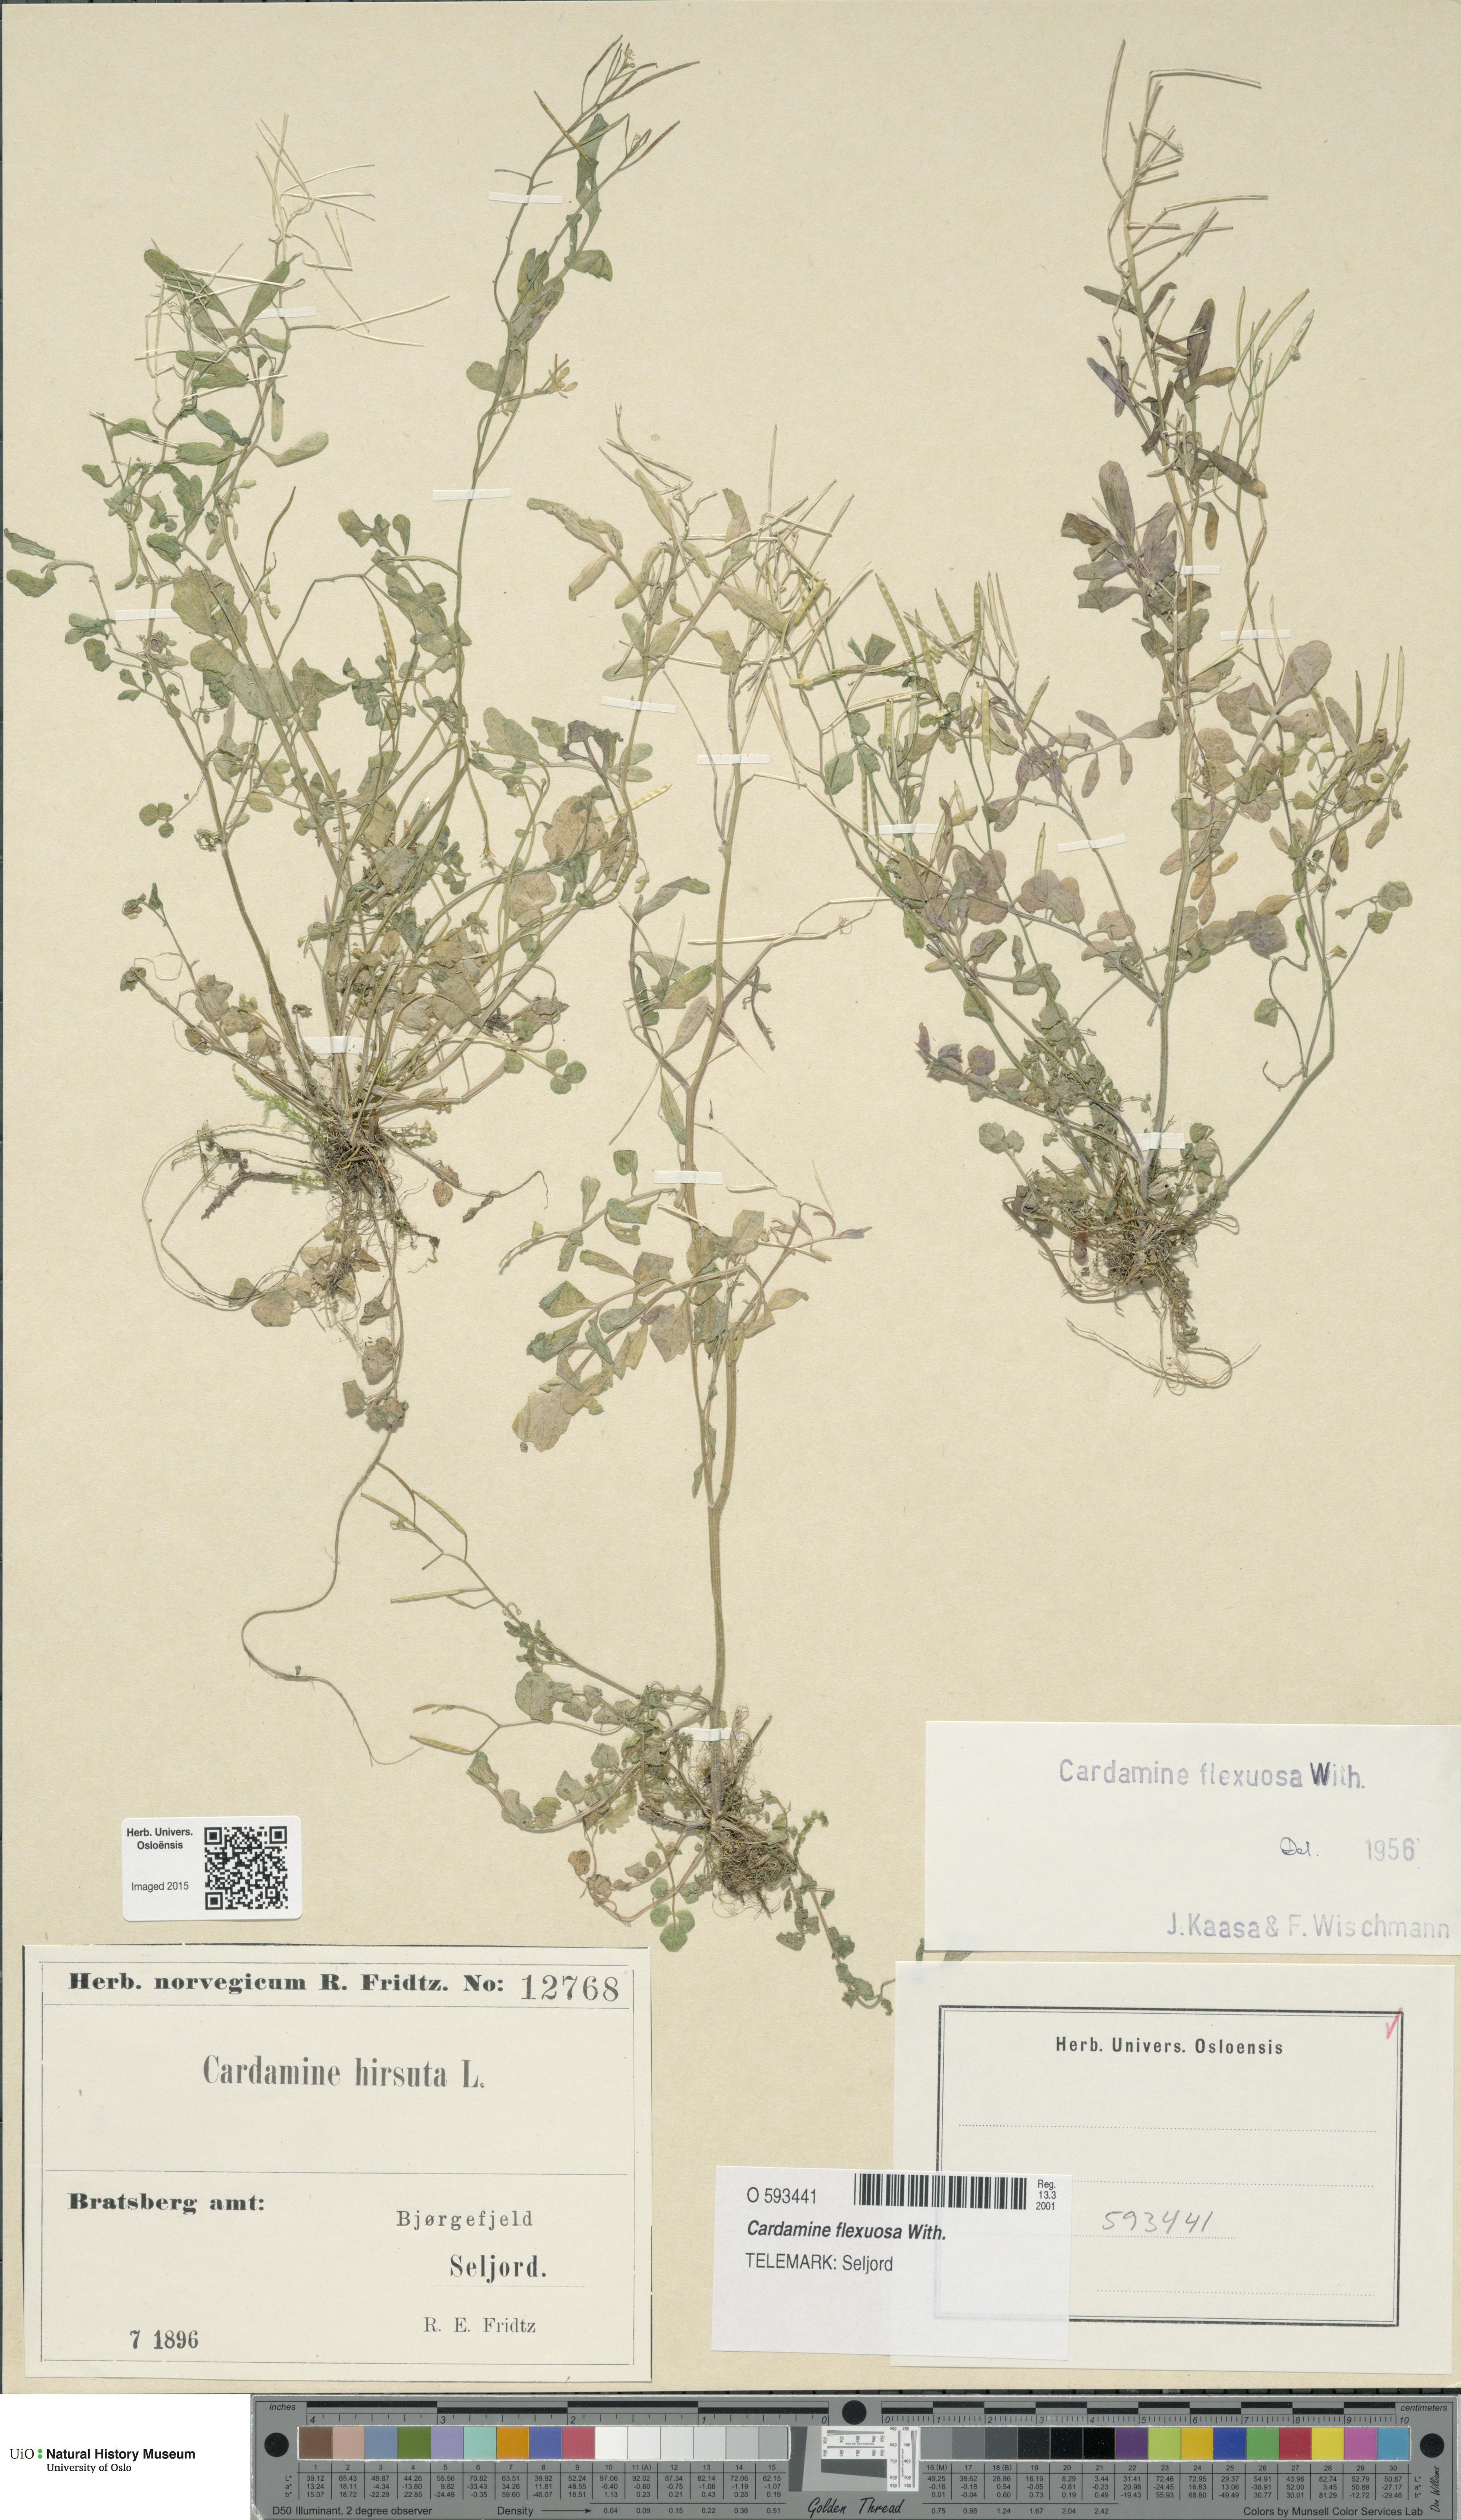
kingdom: Plantae
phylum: Tracheophyta
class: Magnoliopsida
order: Brassicales
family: Brassicaceae
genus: Cardamine
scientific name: Cardamine flexuosa
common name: Woodland bittercress
